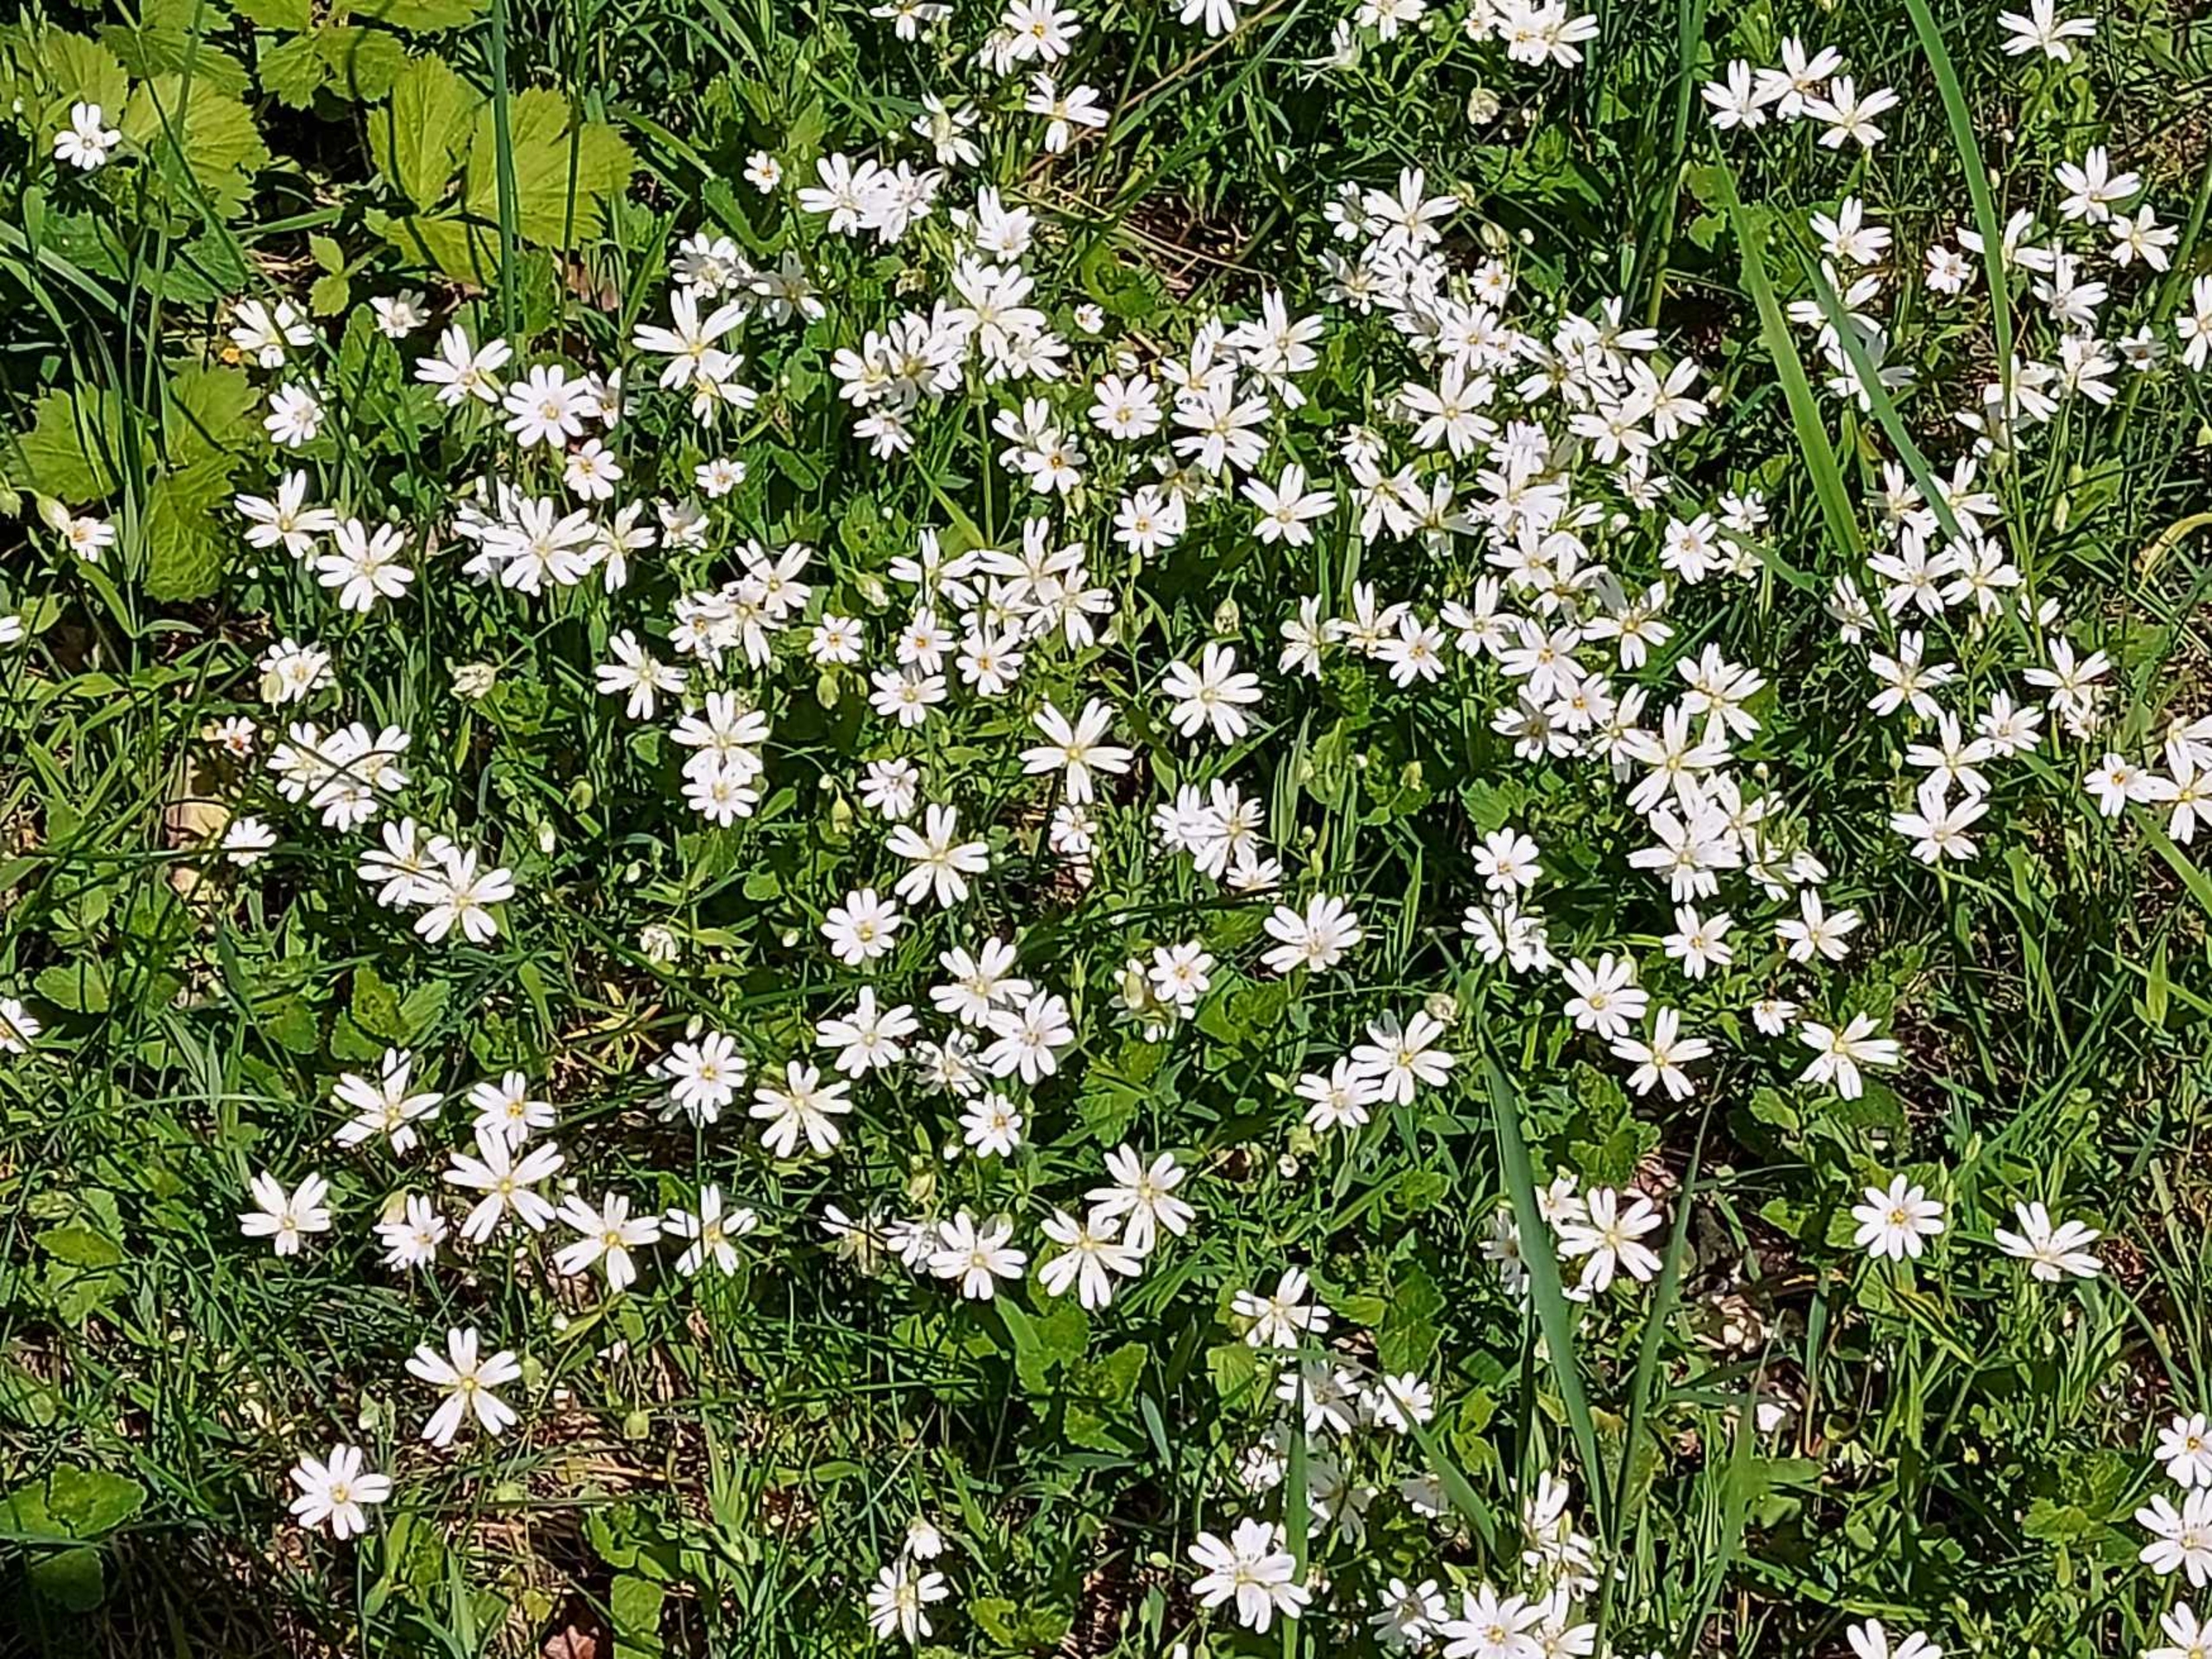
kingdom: Plantae
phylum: Tracheophyta
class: Magnoliopsida
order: Caryophyllales
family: Caryophyllaceae
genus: Rabelera
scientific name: Rabelera holostea
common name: Stor fladstjerne
